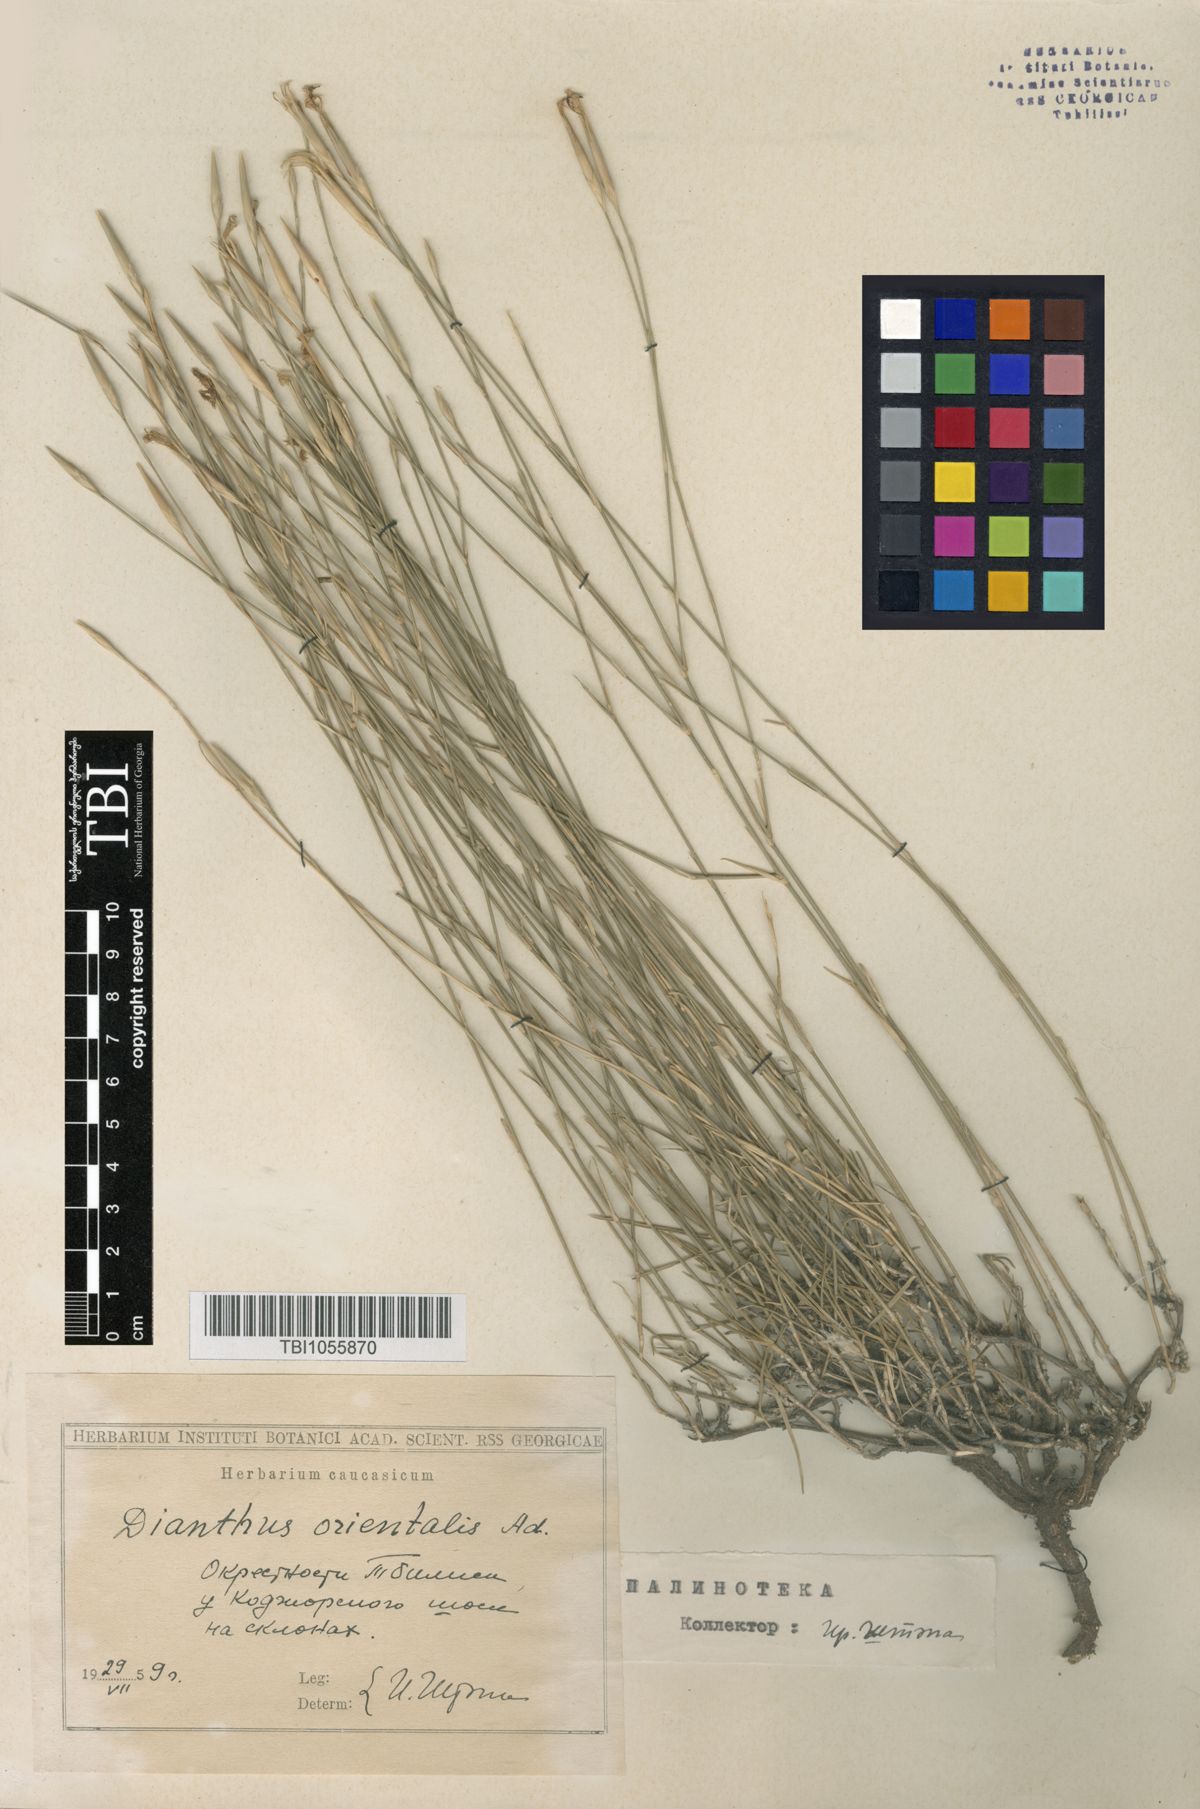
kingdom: Plantae
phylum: Tracheophyta
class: Magnoliopsida
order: Caryophyllales
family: Caryophyllaceae
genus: Dianthus
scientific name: Dianthus orientalis
